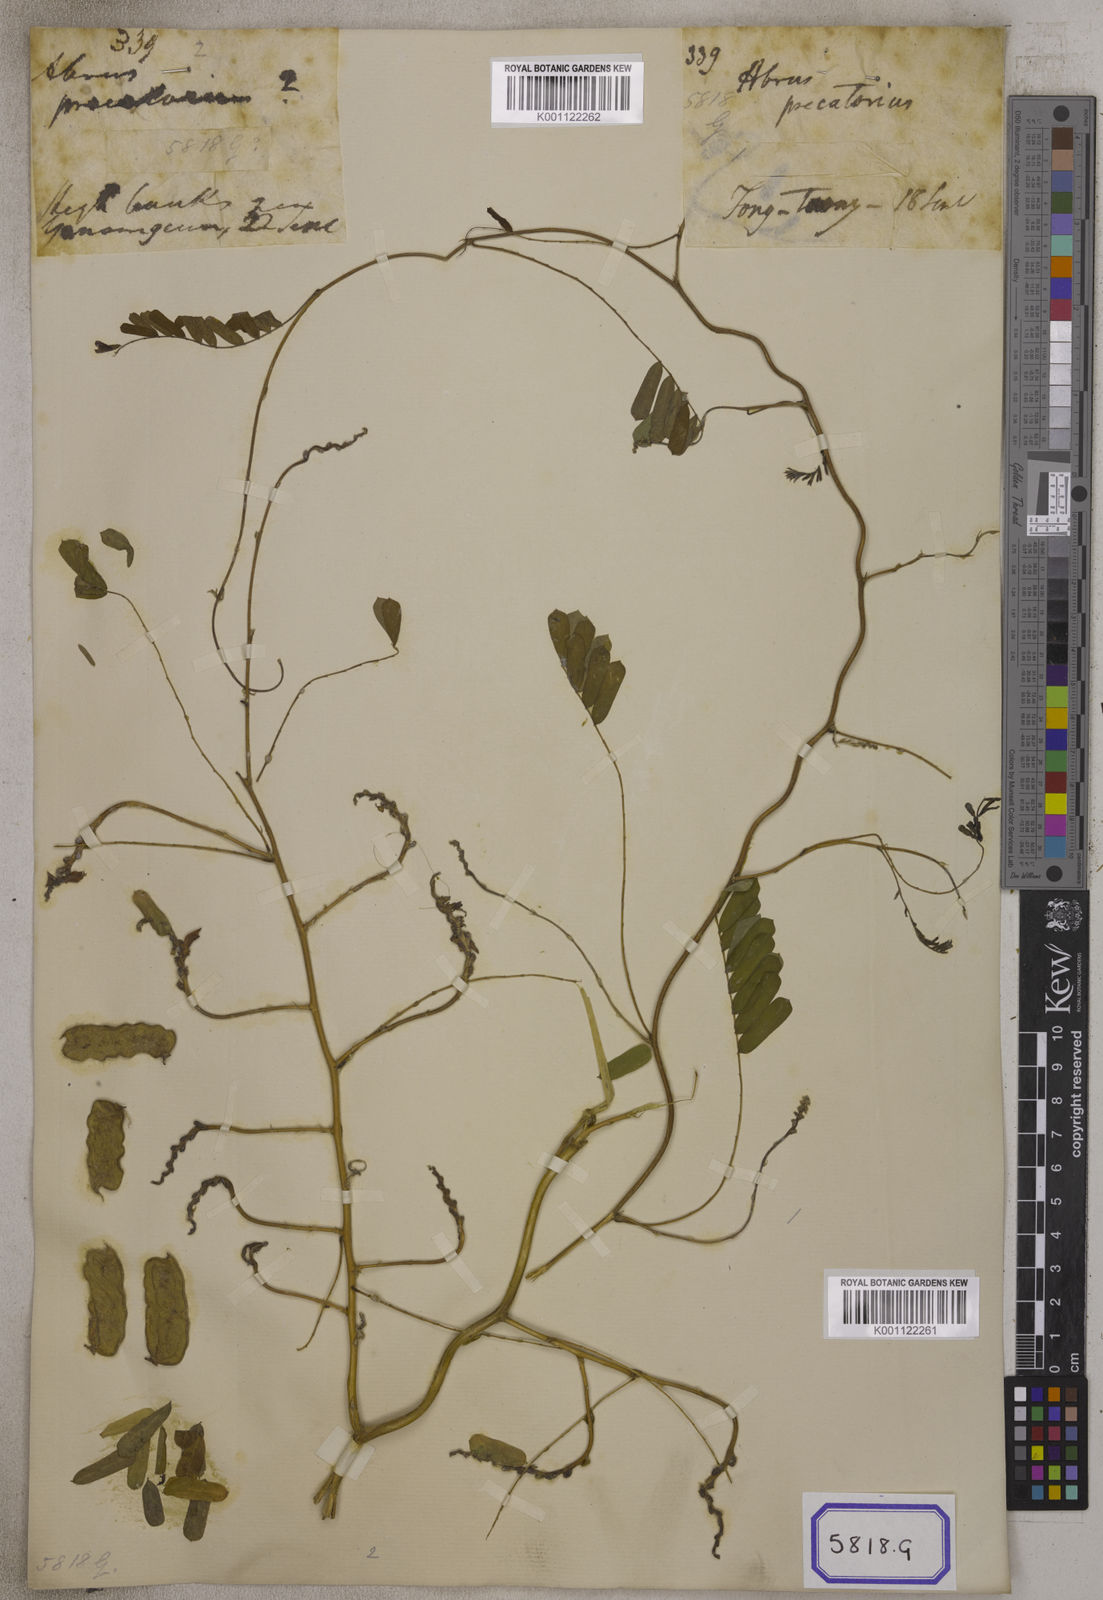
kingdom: Plantae
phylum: Tracheophyta
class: Magnoliopsida
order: Fabales
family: Fabaceae
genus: Abrus
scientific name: Abrus precatorius
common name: Rosarypea
